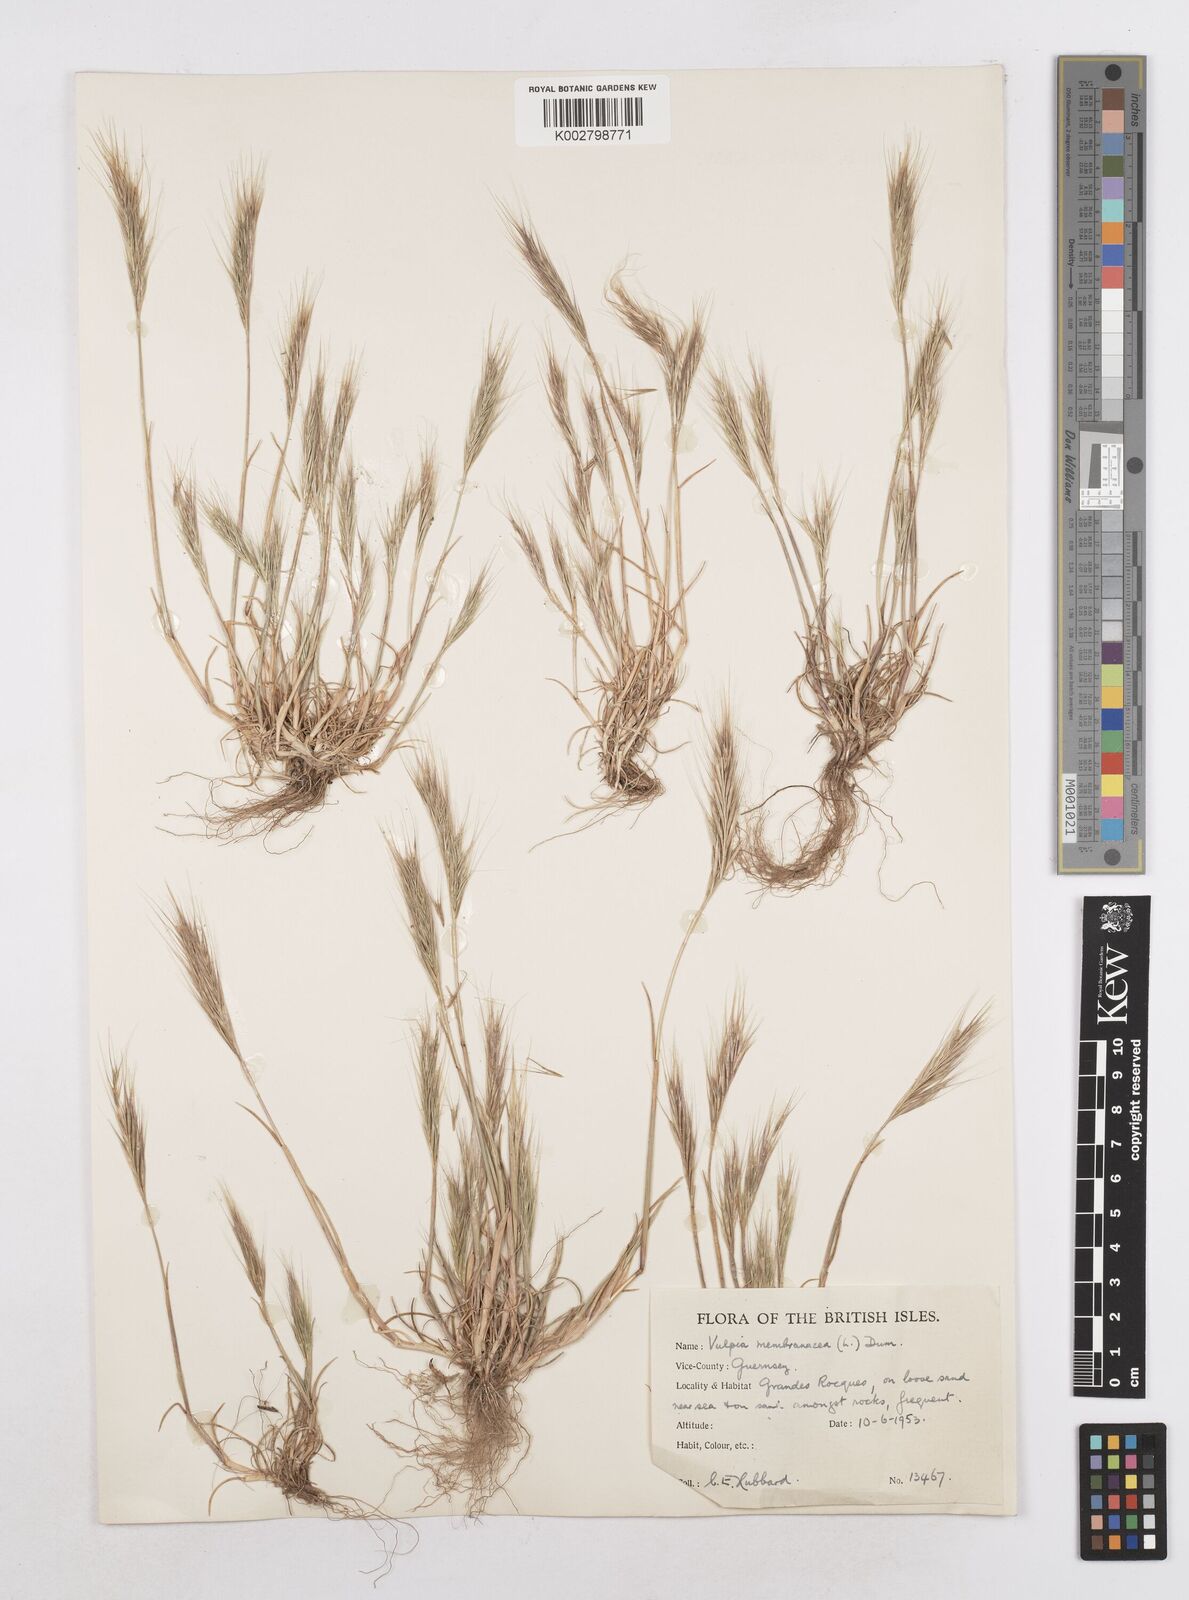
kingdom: Plantae
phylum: Tracheophyta
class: Liliopsida
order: Poales
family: Poaceae
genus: Festuca
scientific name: Festuca fasciculata
